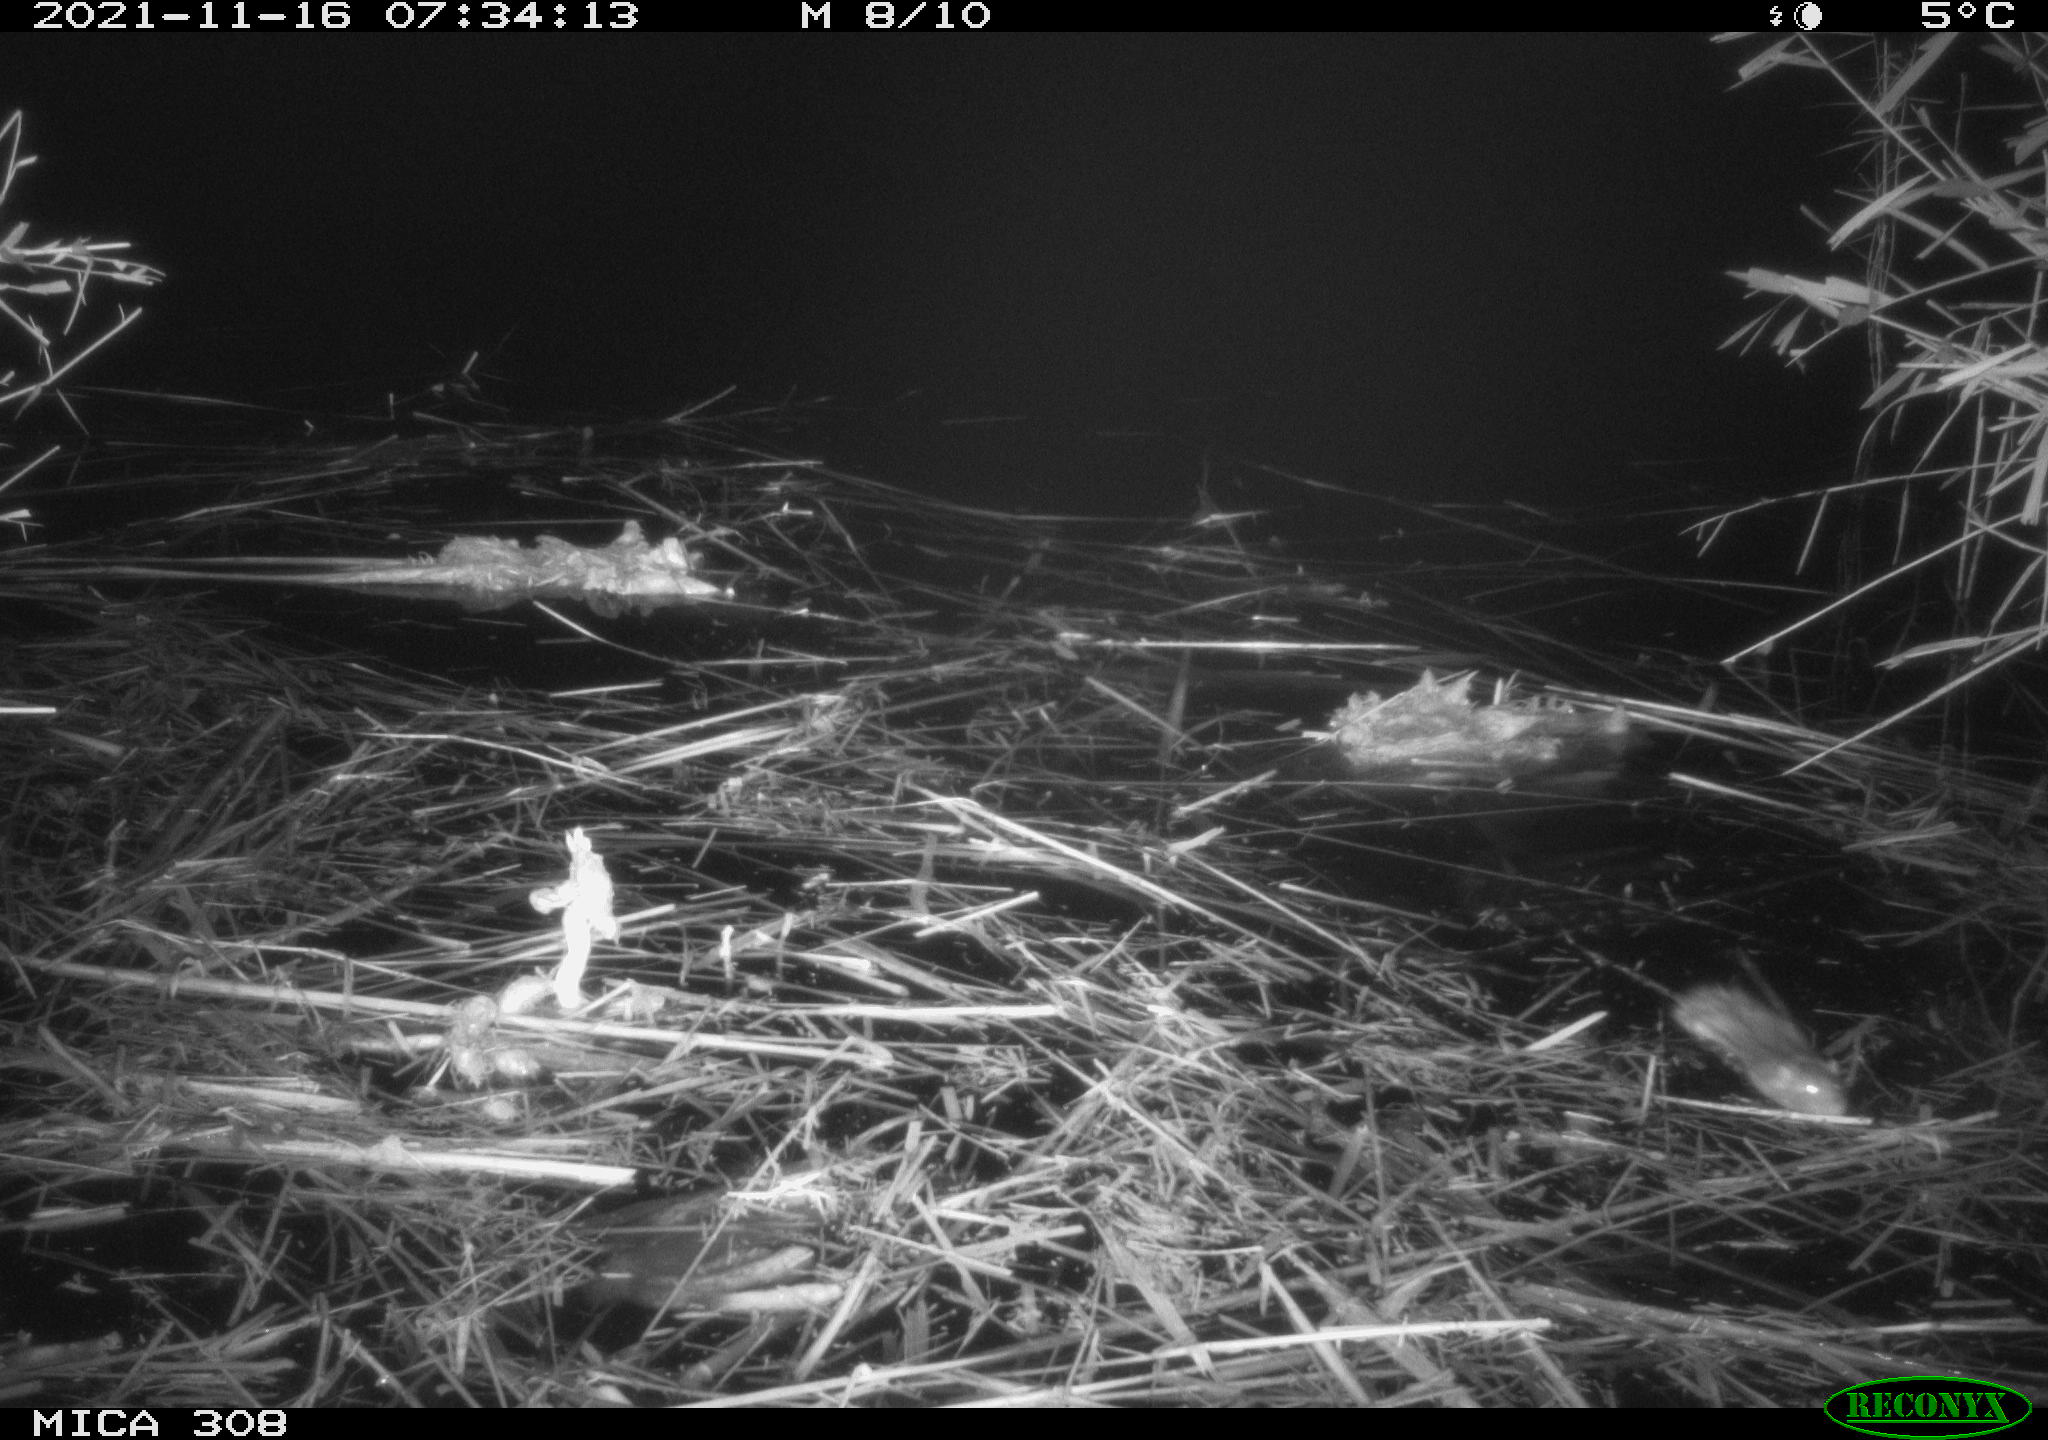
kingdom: Animalia
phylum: Chordata
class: Mammalia
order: Rodentia
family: Muridae
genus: Rattus
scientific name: Rattus norvegicus
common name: Brown rat
